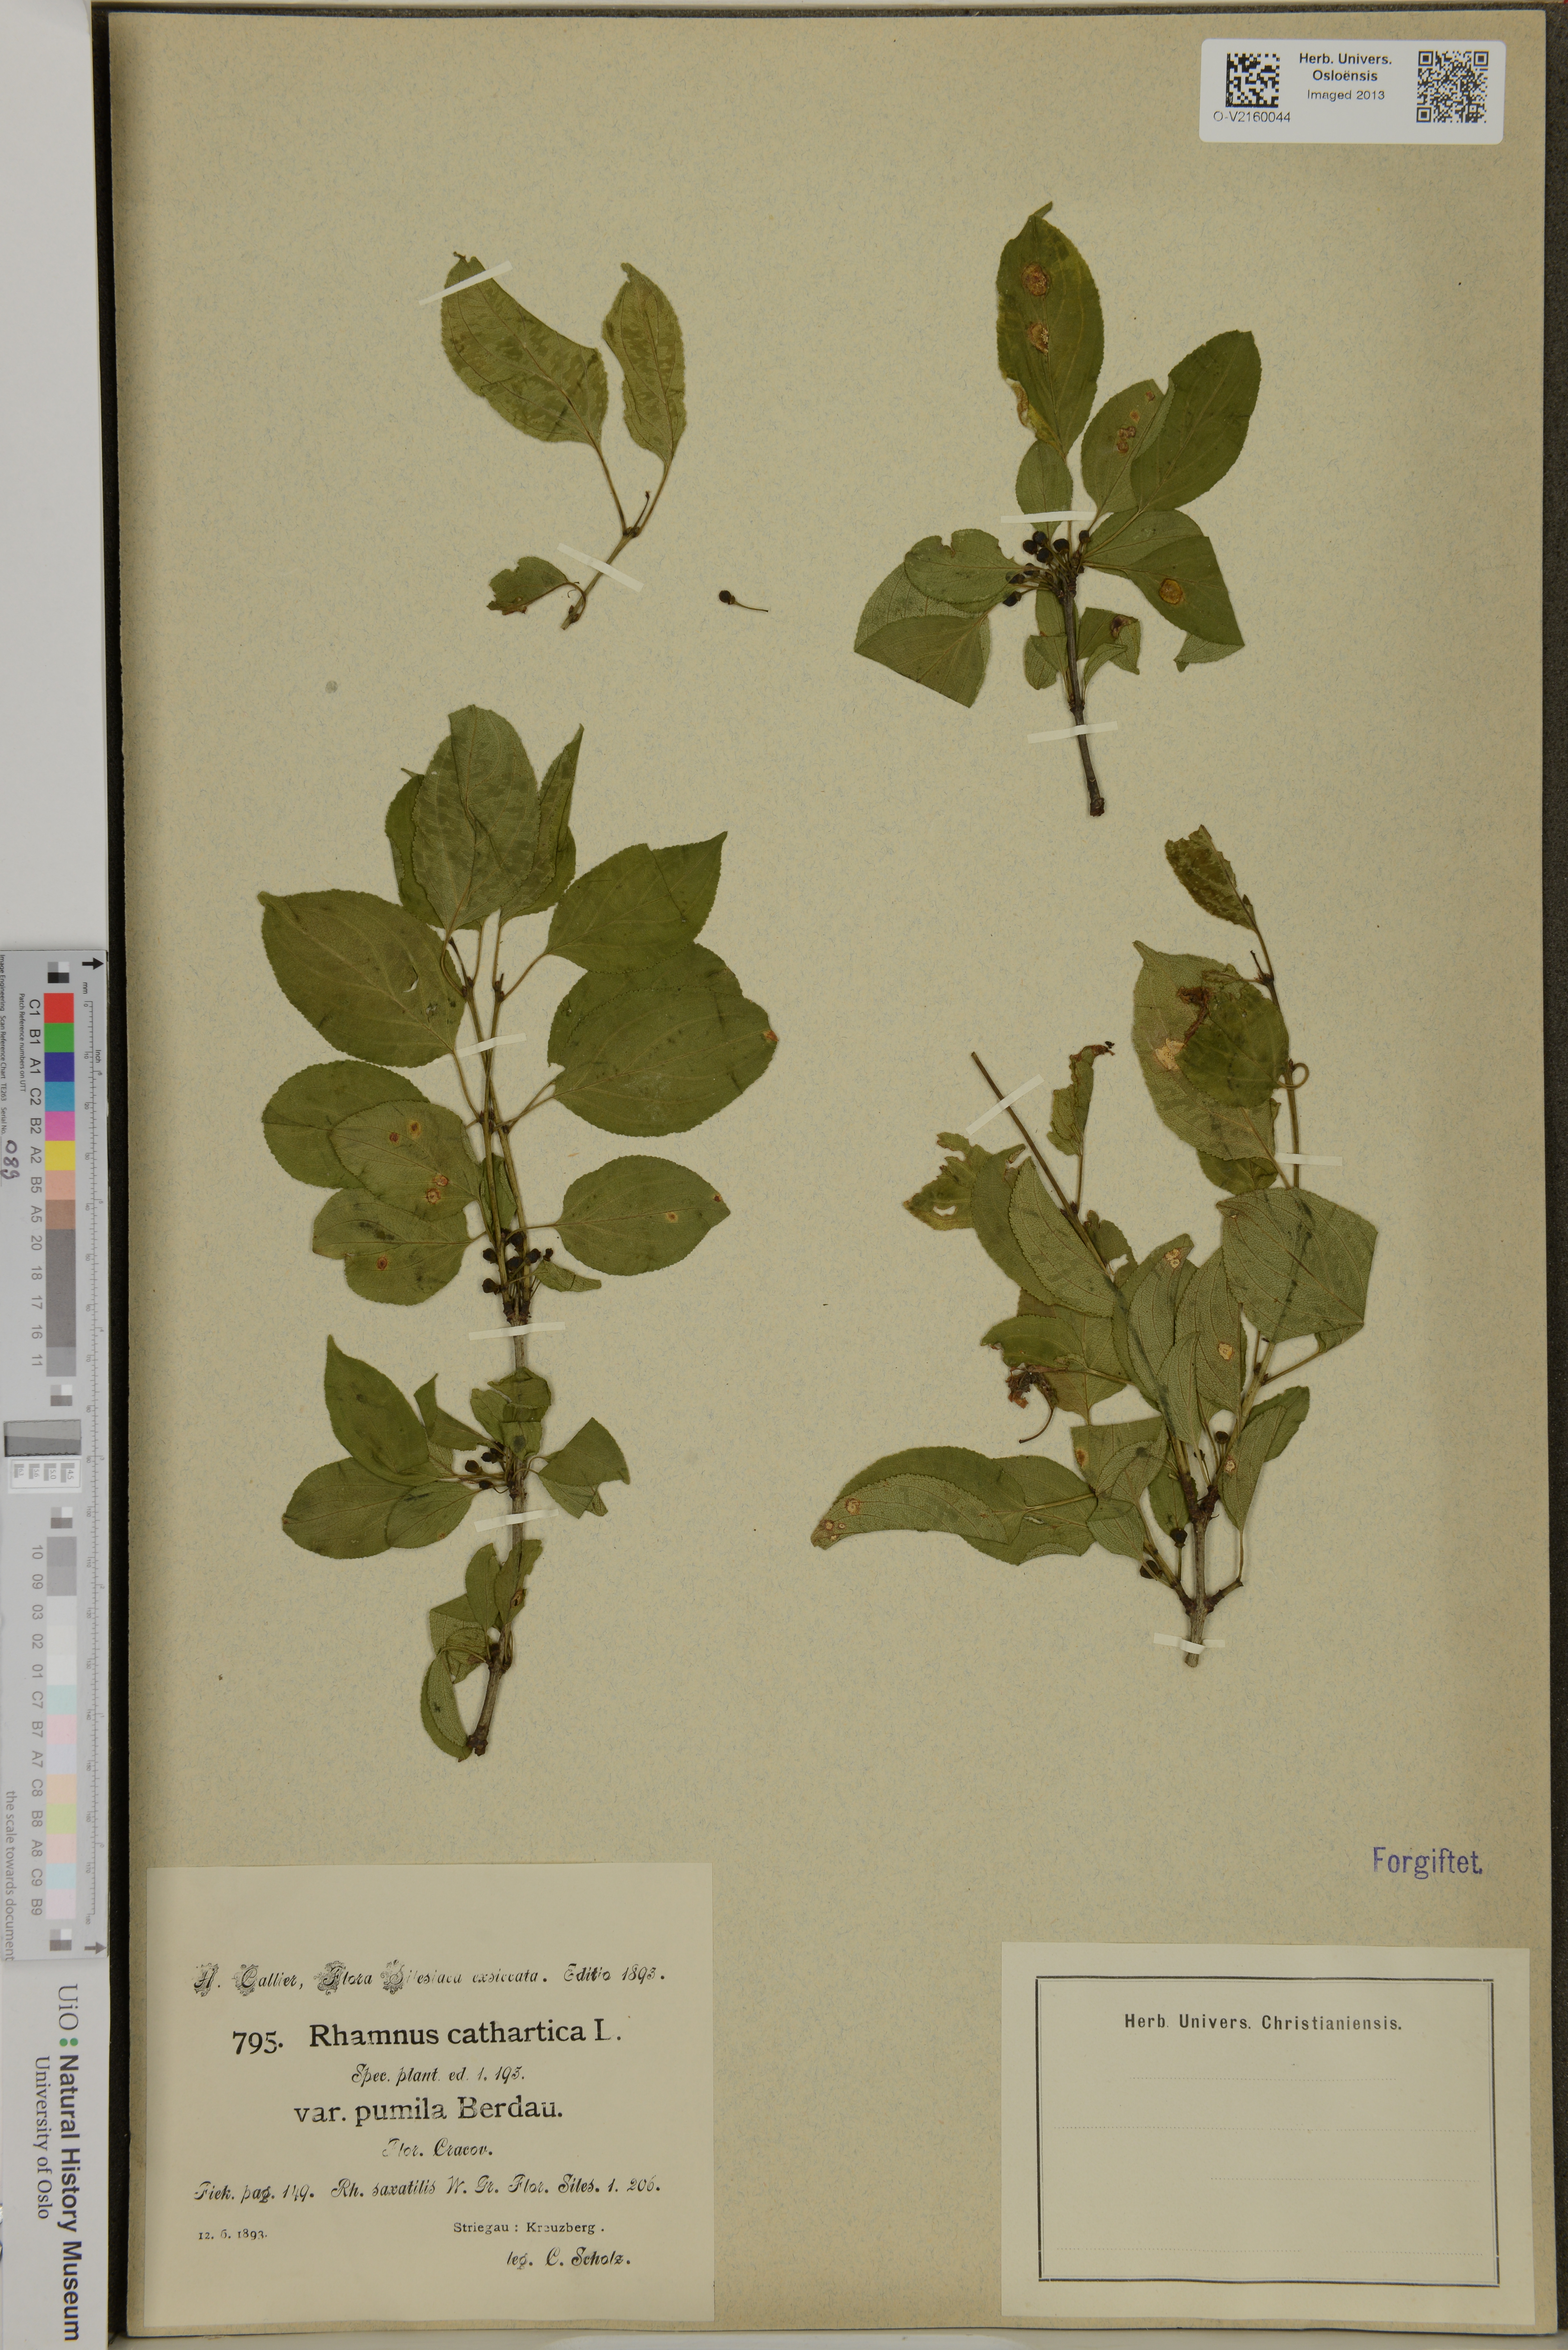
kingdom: Plantae
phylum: Tracheophyta
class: Magnoliopsida
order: Rosales
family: Rhamnaceae
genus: Rhamnus
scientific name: Rhamnus cathartica
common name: Common buckthorn
